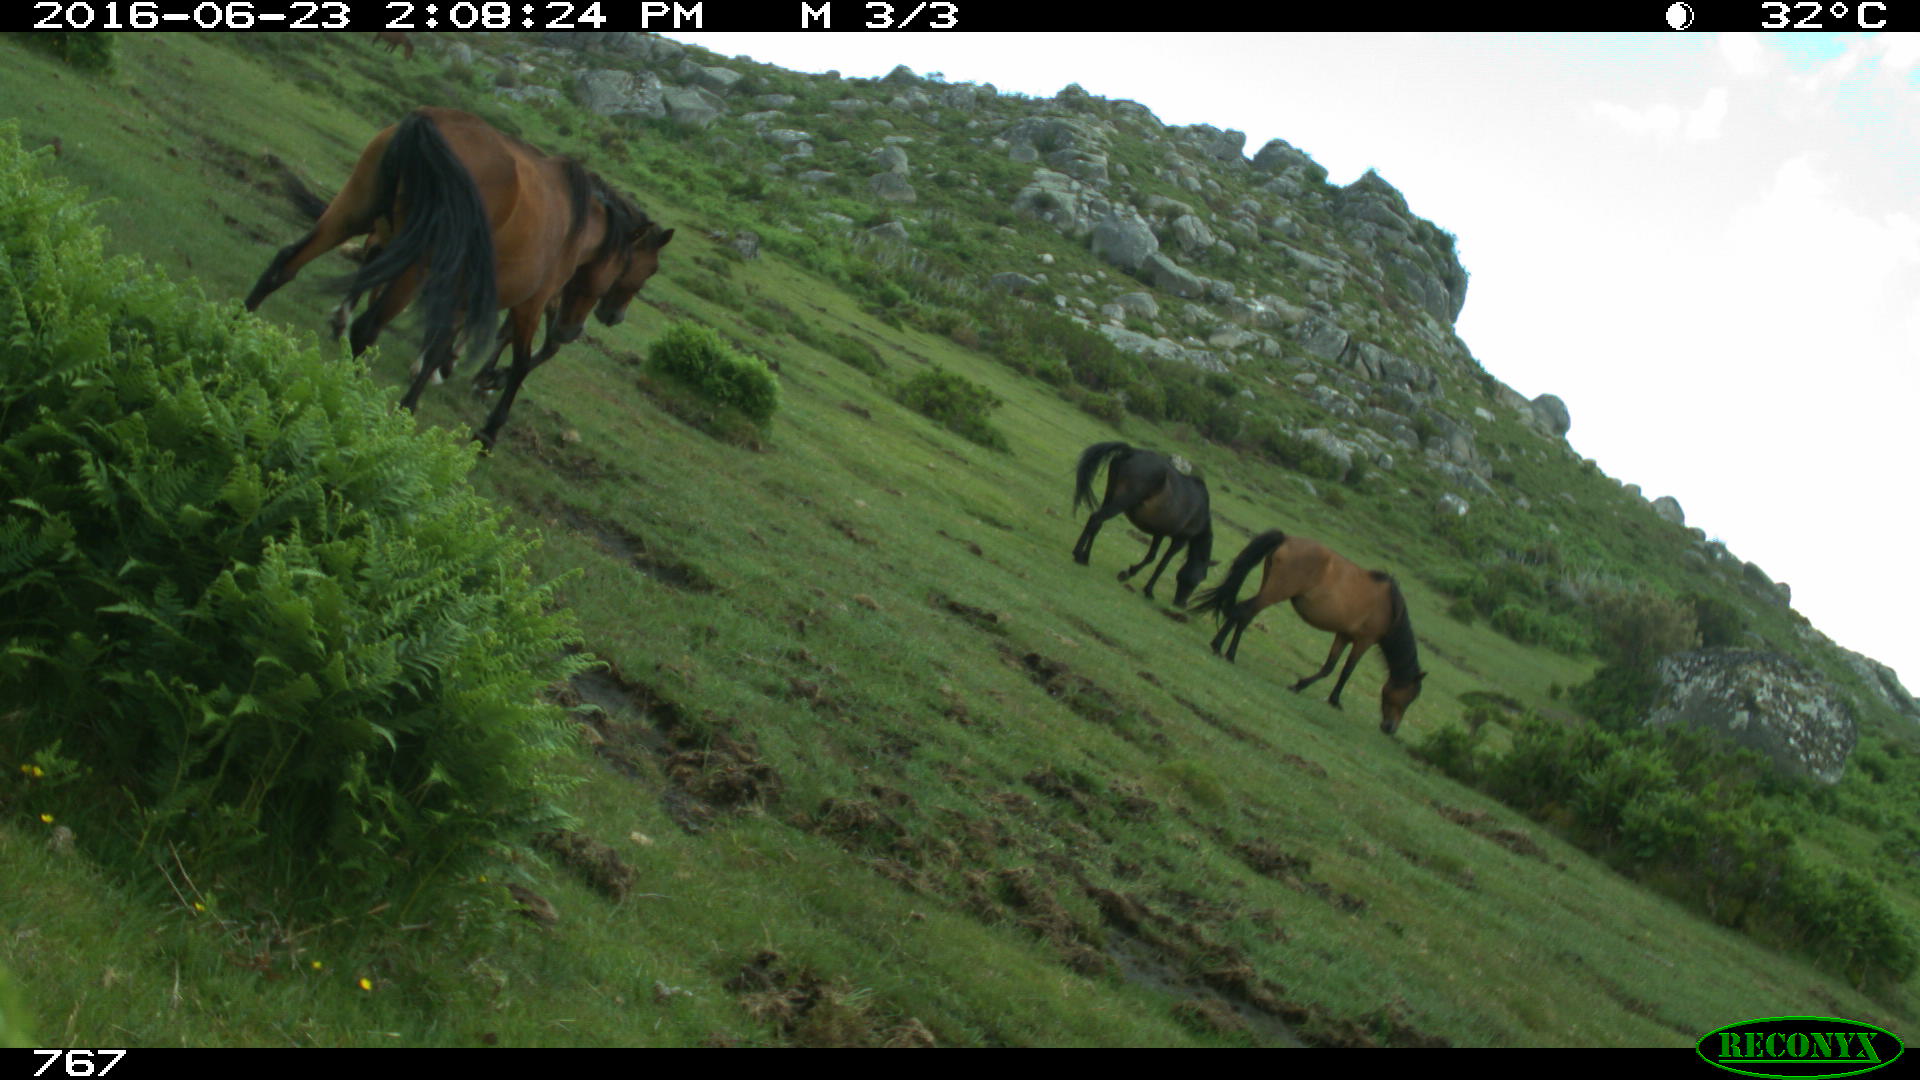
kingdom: Animalia
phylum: Chordata
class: Mammalia
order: Perissodactyla
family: Equidae
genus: Equus
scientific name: Equus caballus
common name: Horse
